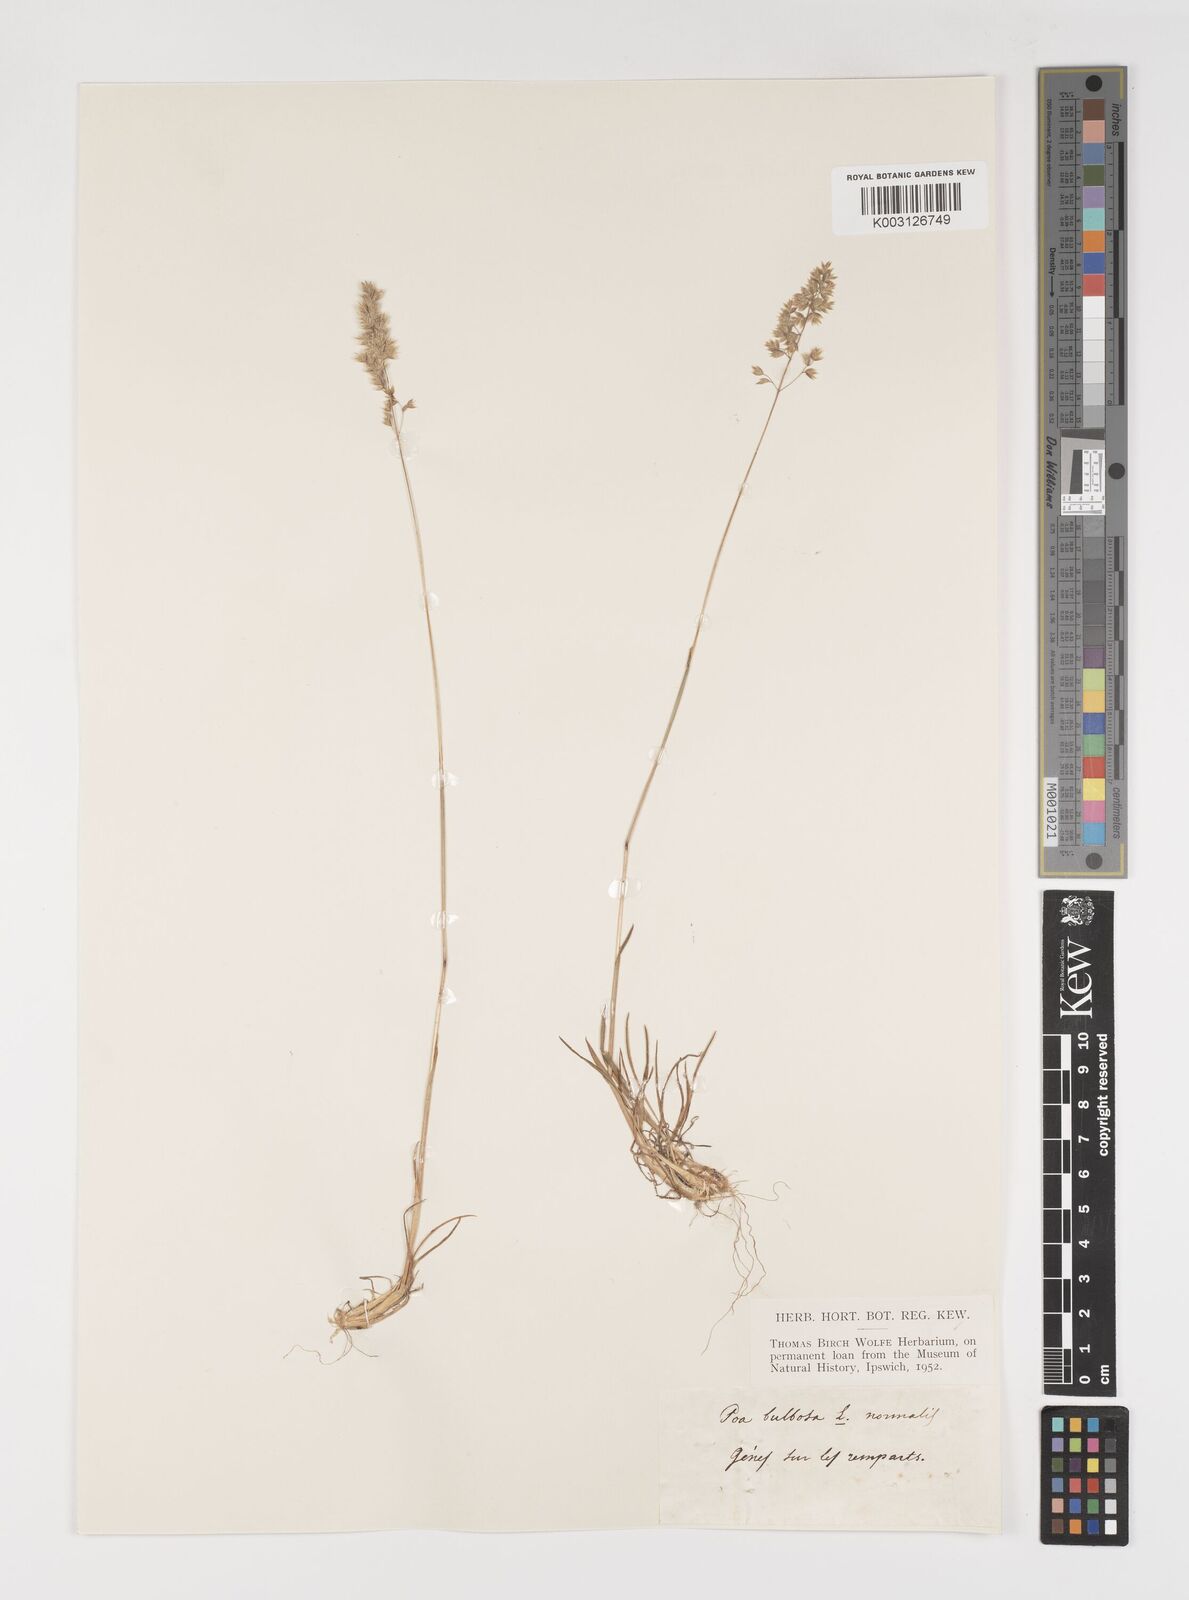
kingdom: Plantae
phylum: Tracheophyta
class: Liliopsida
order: Poales
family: Poaceae
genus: Poa
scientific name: Poa bulbosa
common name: Bulbous bluegrass
